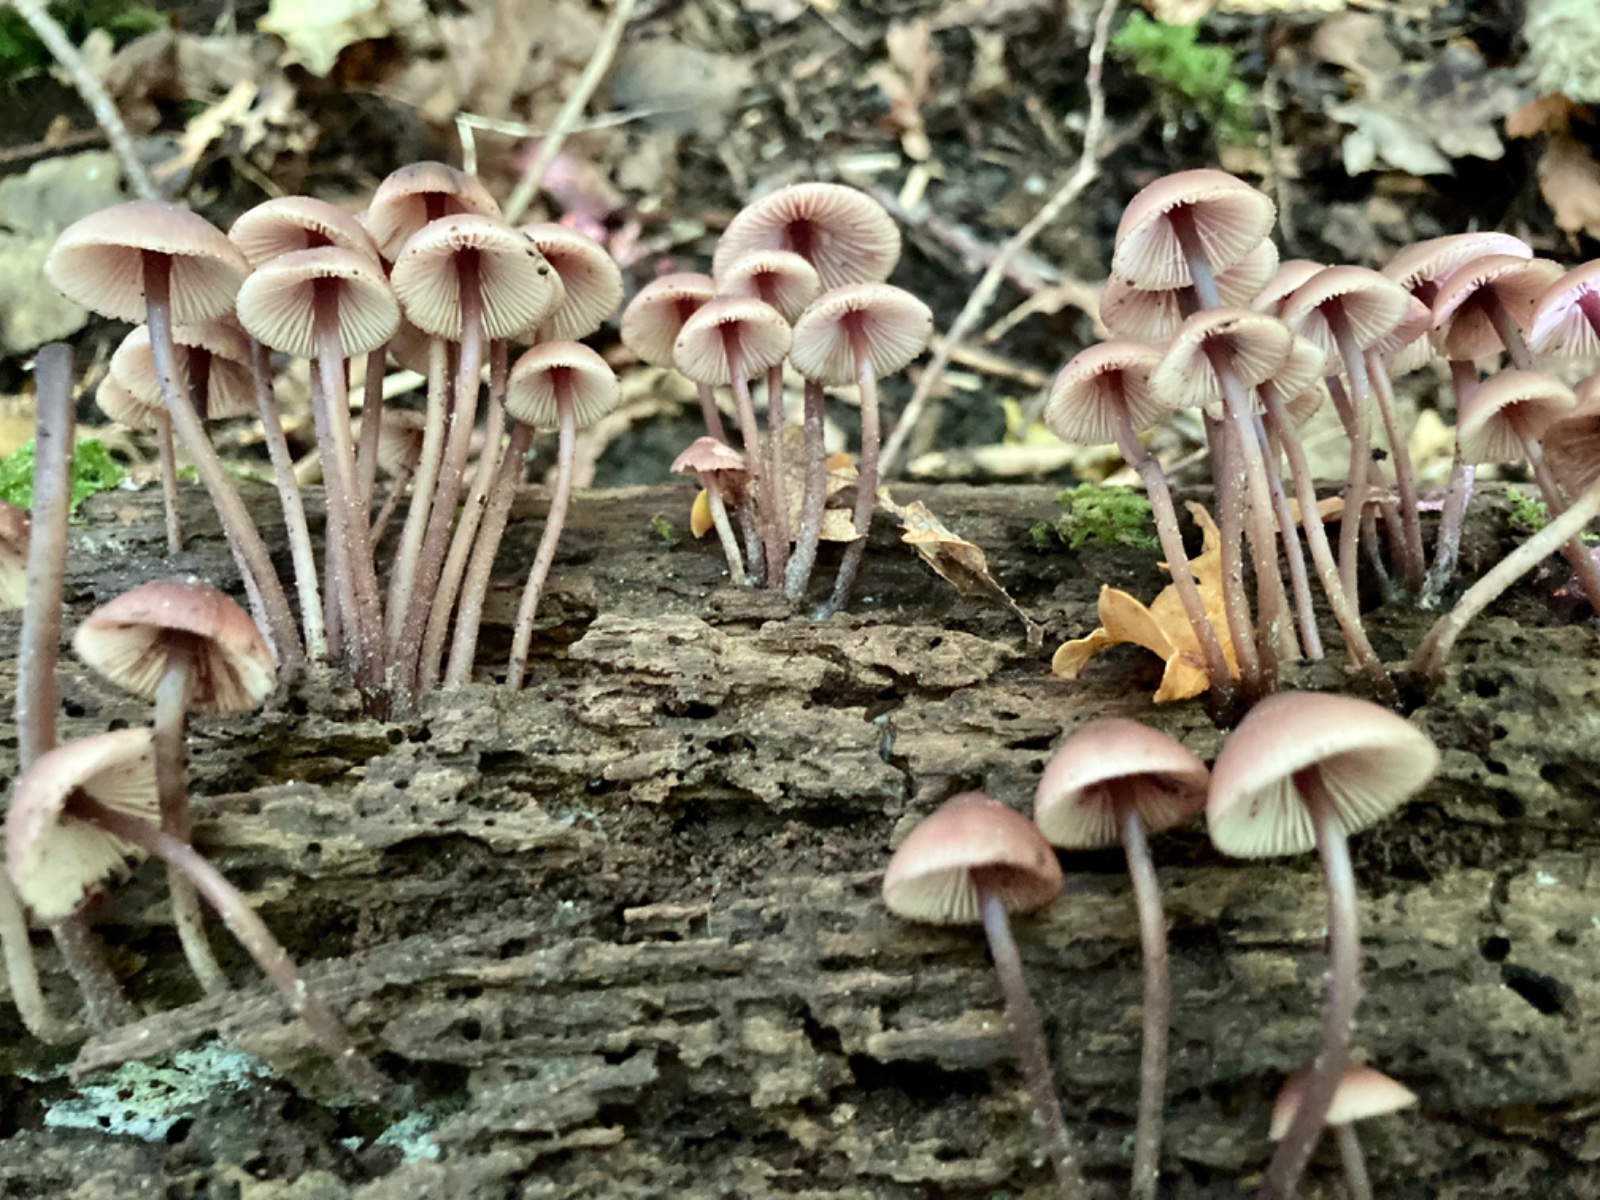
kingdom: Fungi
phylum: Basidiomycota
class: Agaricomycetes
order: Agaricales
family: Mycenaceae
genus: Mycena
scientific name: Mycena haematopus
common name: blødende huesvamp
